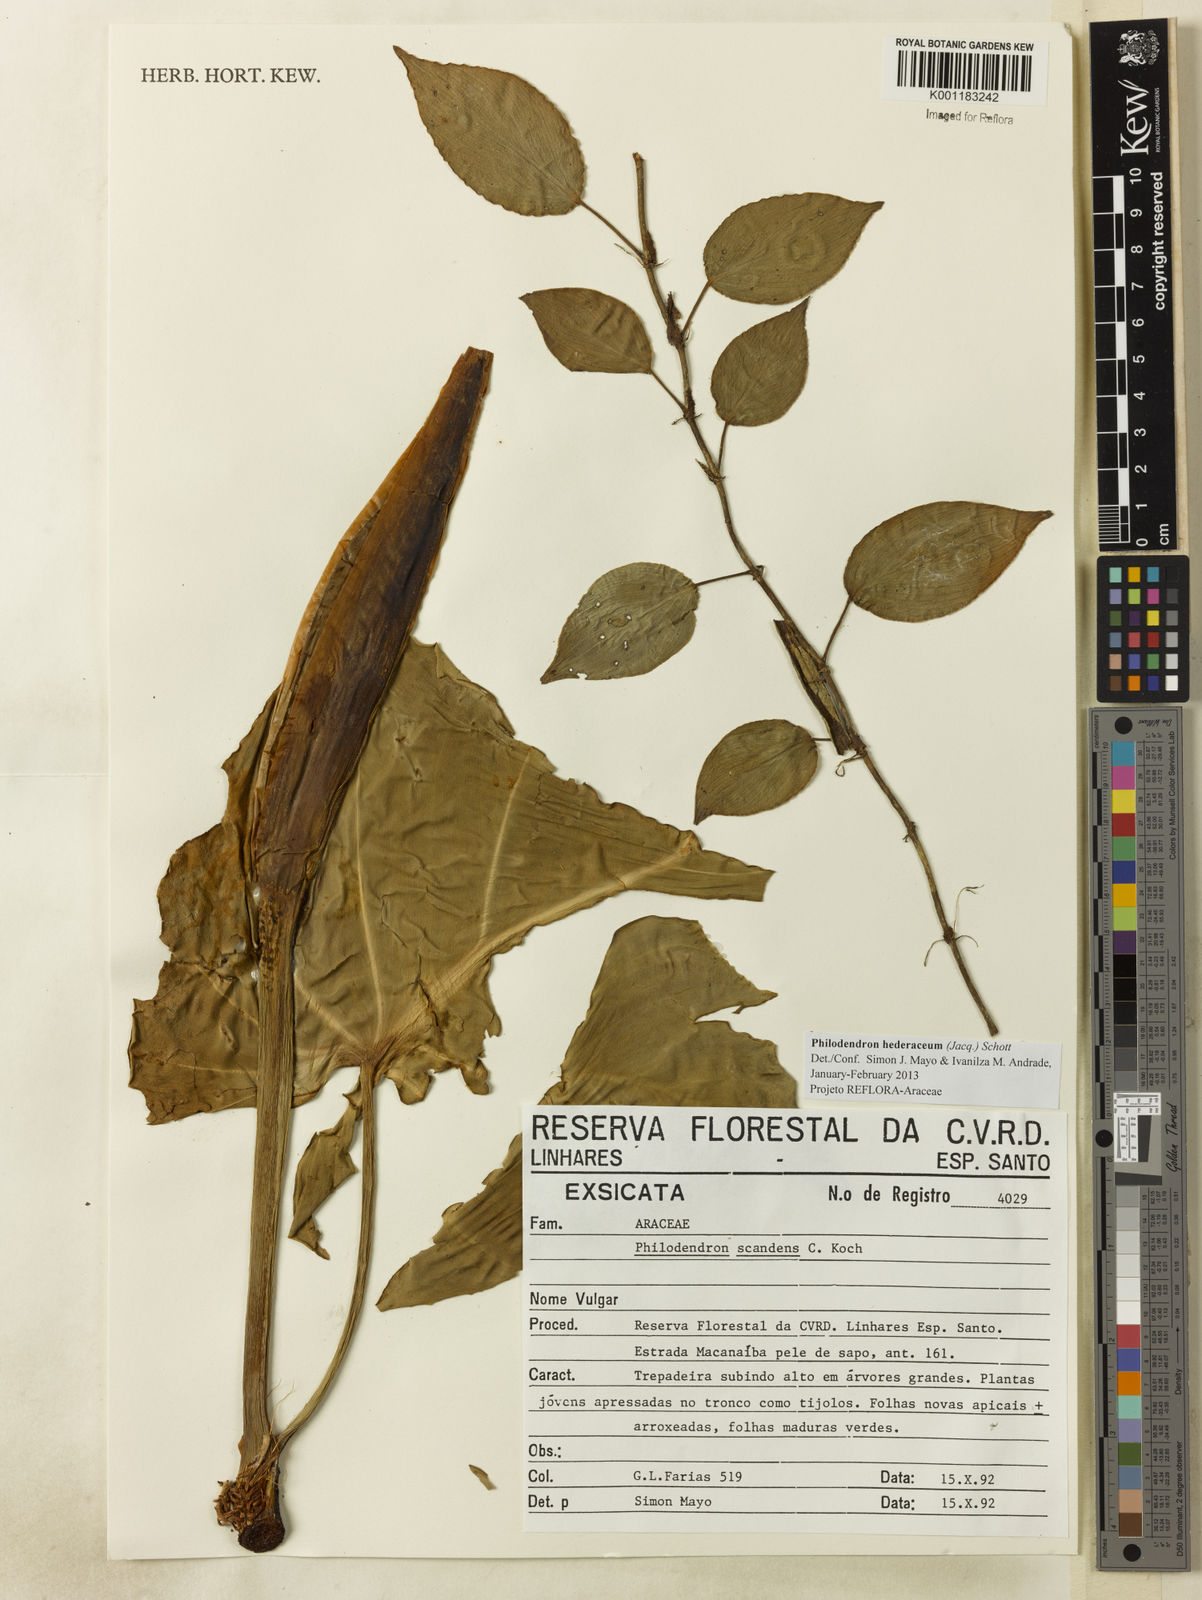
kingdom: Plantae
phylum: Tracheophyta
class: Liliopsida
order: Alismatales
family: Araceae
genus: Philodendron
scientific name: Philodendron hederaceum
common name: Vilevine
